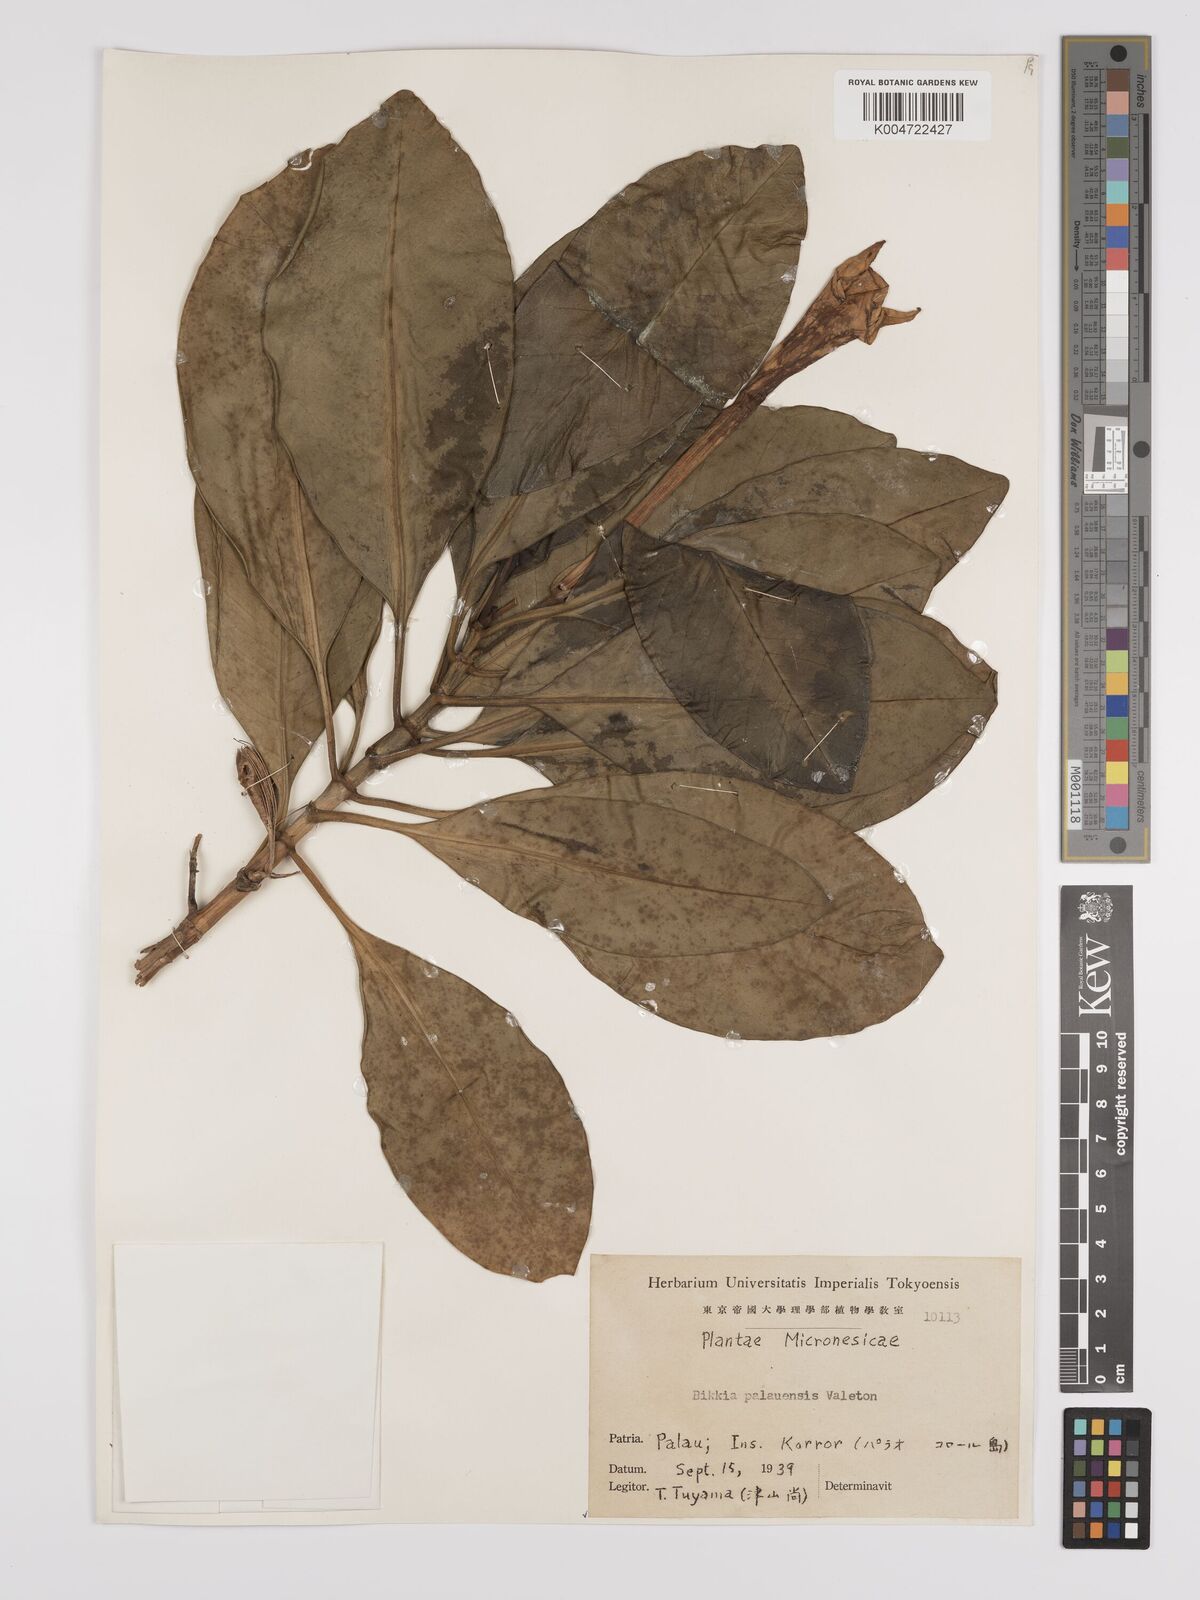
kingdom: Plantae
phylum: Tracheophyta
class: Magnoliopsida
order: Gentianales
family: Rubiaceae
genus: Bikkia
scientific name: Bikkia tetrandra
